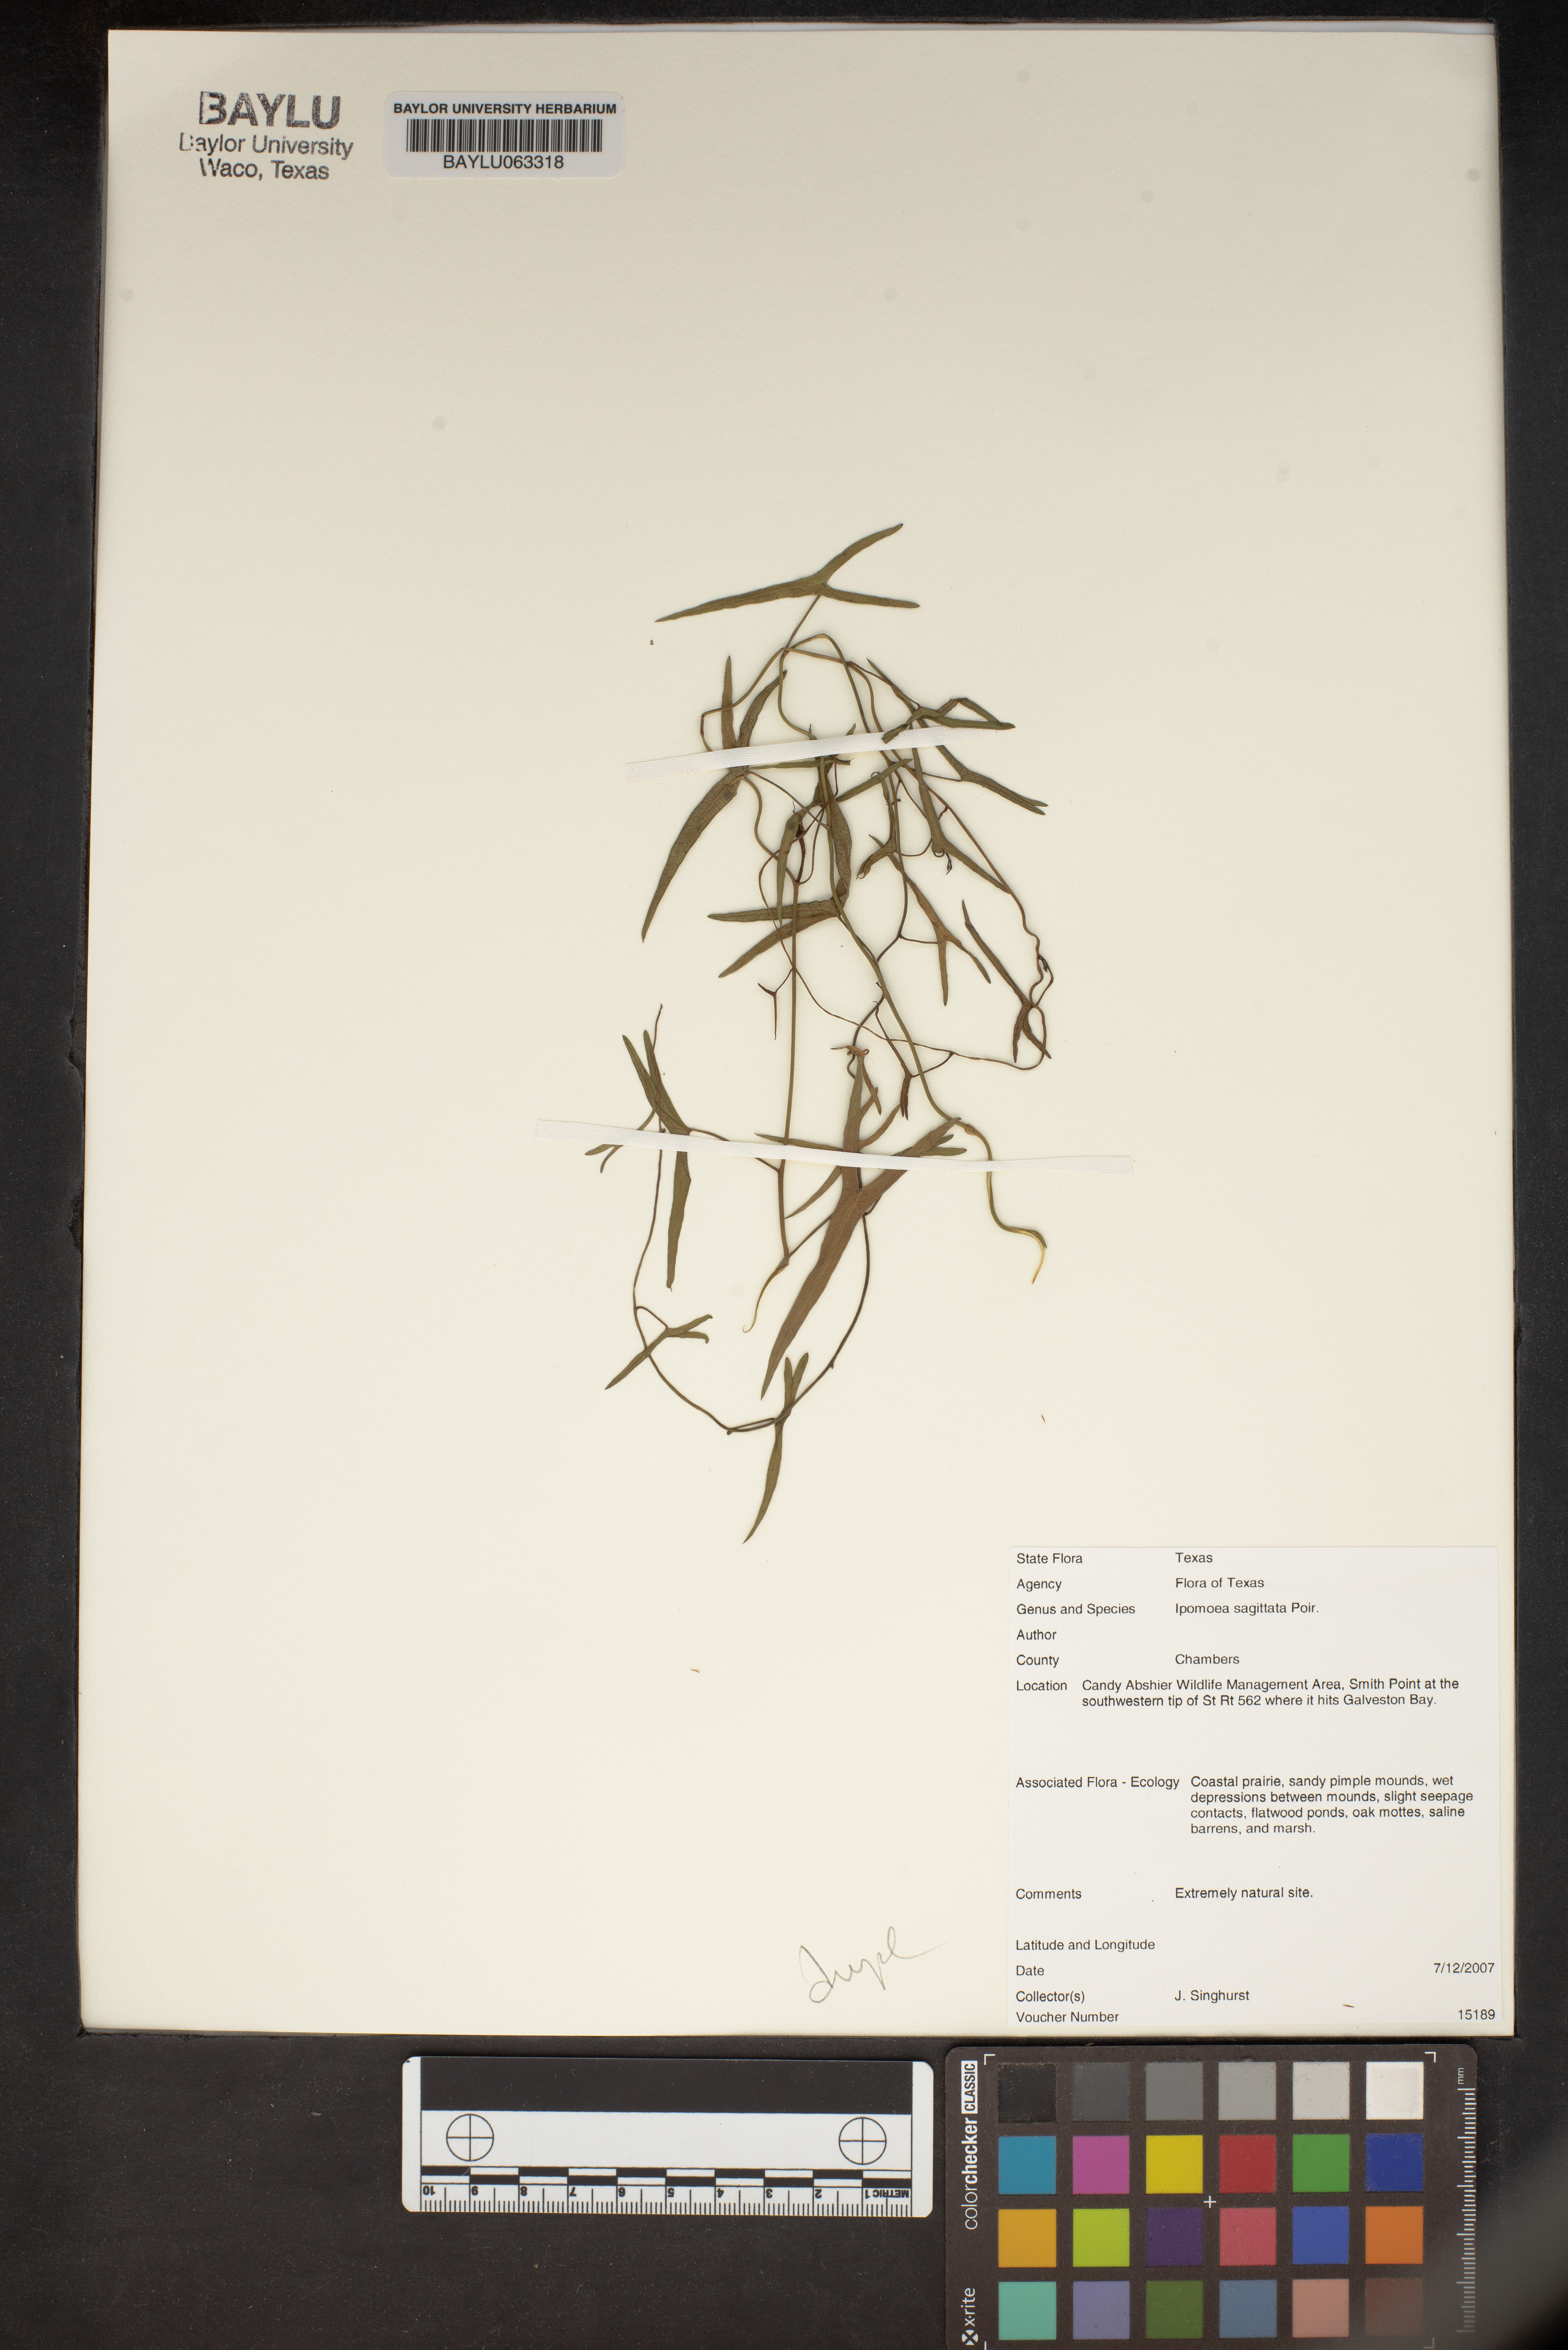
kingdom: Plantae
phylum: Tracheophyta
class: Magnoliopsida
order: Solanales
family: Convolvulaceae
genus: Ipomoea
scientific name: Ipomoea sinensis
